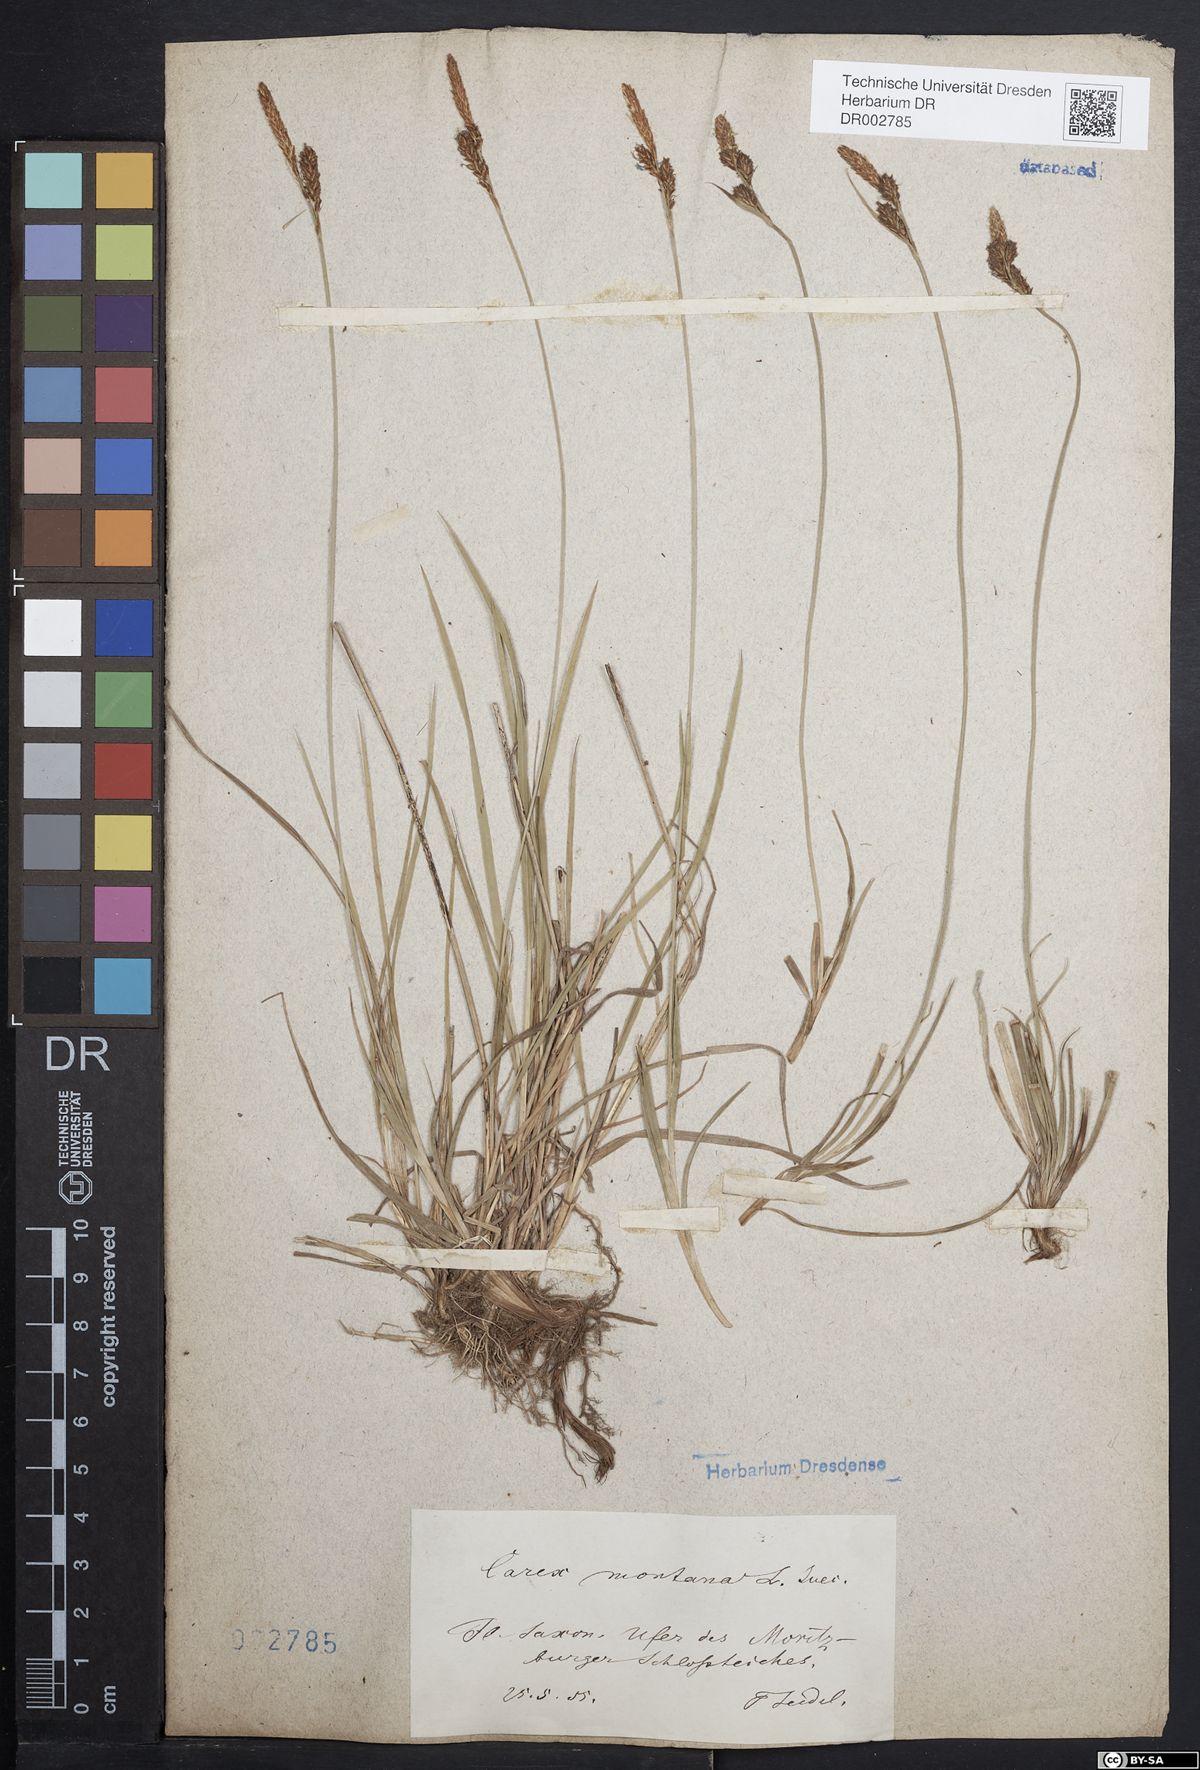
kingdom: Plantae
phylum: Tracheophyta
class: Liliopsida
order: Poales
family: Cyperaceae
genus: Carex
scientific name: Carex montana
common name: Soft-leaved sedge
